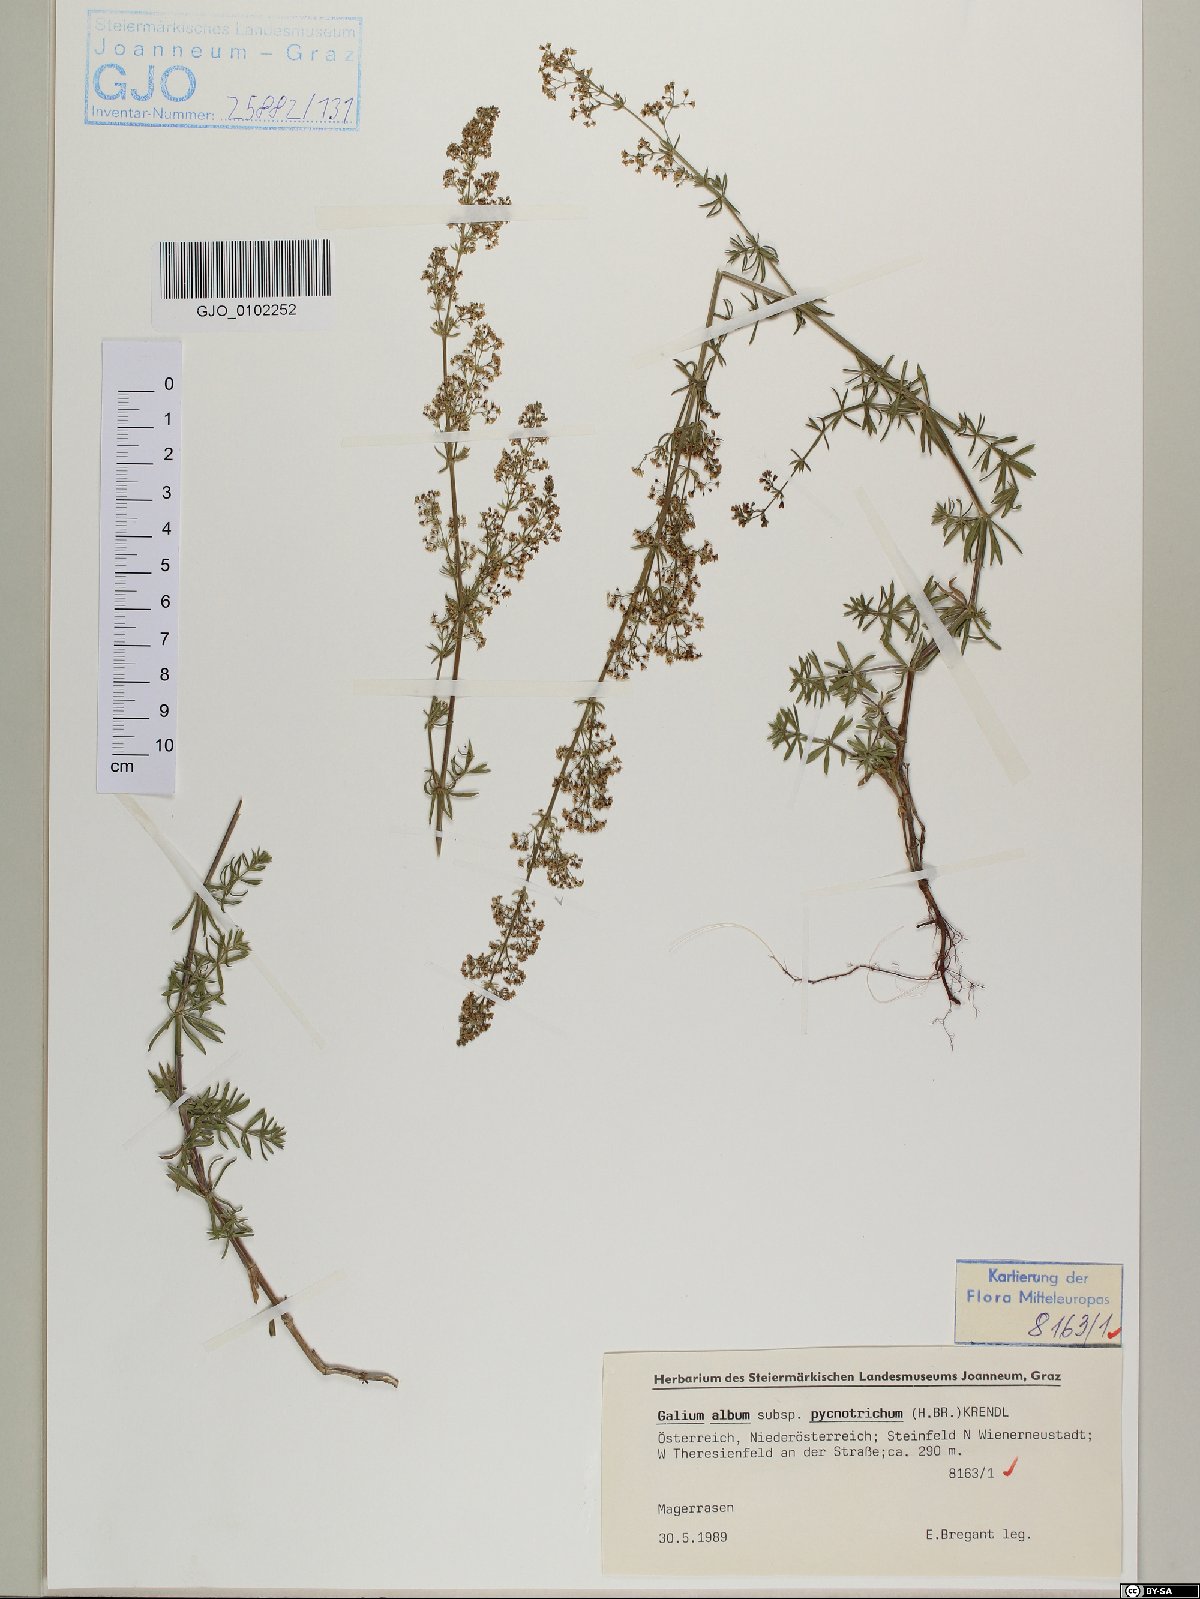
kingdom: Plantae
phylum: Tracheophyta
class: Magnoliopsida
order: Gentianales
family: Rubiaceae
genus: Galium
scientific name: Galium album
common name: White bedstraw
